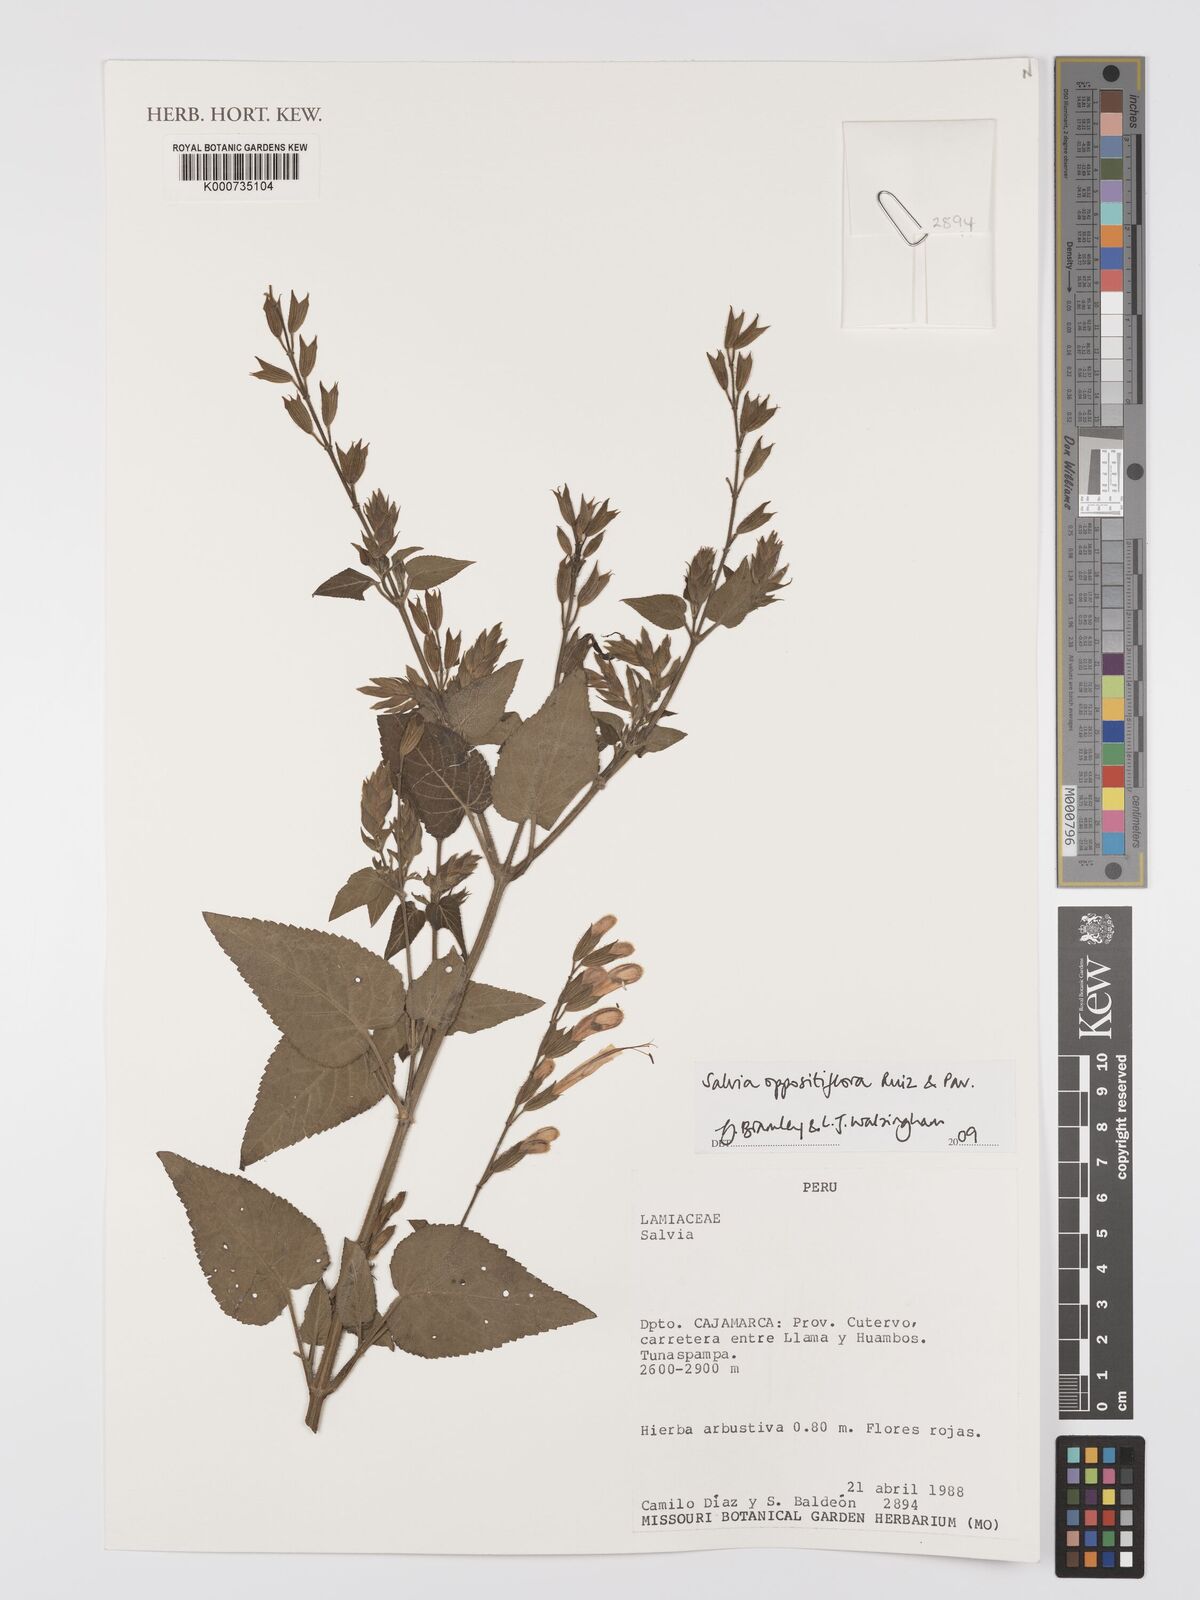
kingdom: Plantae
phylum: Tracheophyta
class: Magnoliopsida
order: Lamiales
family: Lamiaceae
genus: Salvia
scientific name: Salvia oppositiflora
